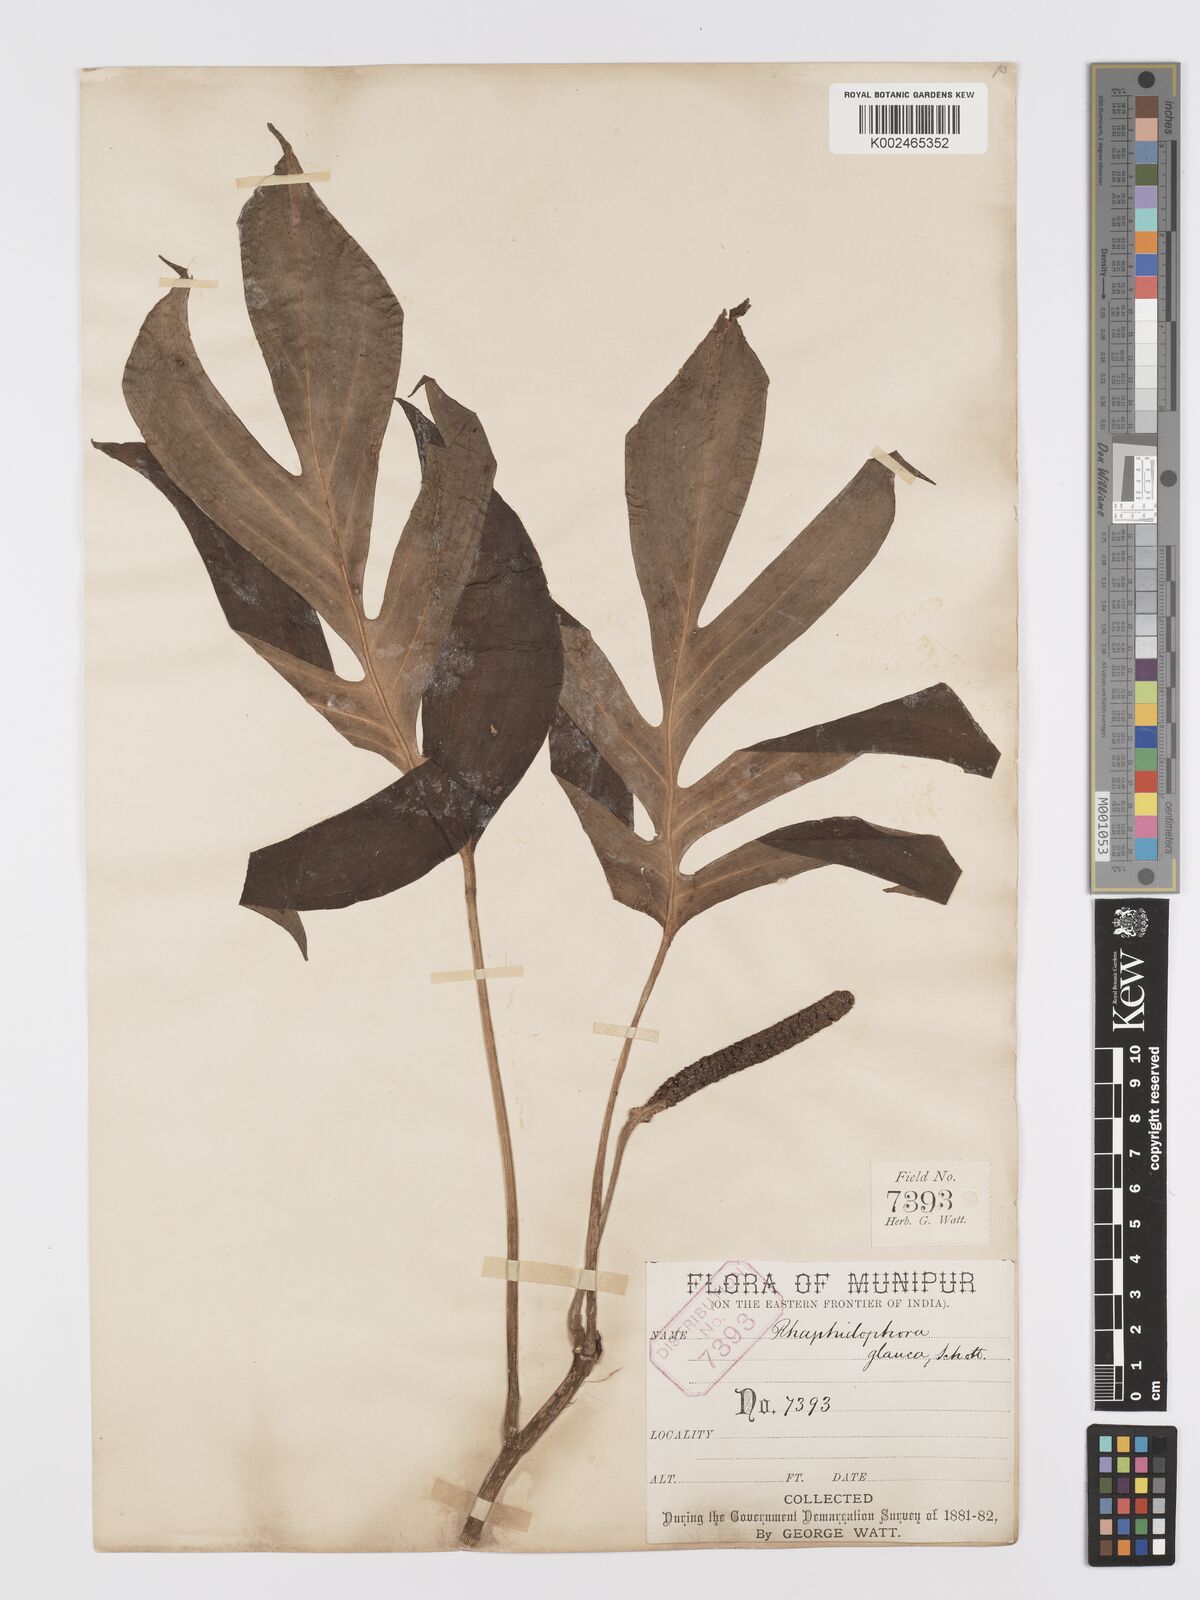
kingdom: Plantae
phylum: Tracheophyta
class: Liliopsida
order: Alismatales
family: Araceae
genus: Rhaphidophora
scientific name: Rhaphidophora glauca
